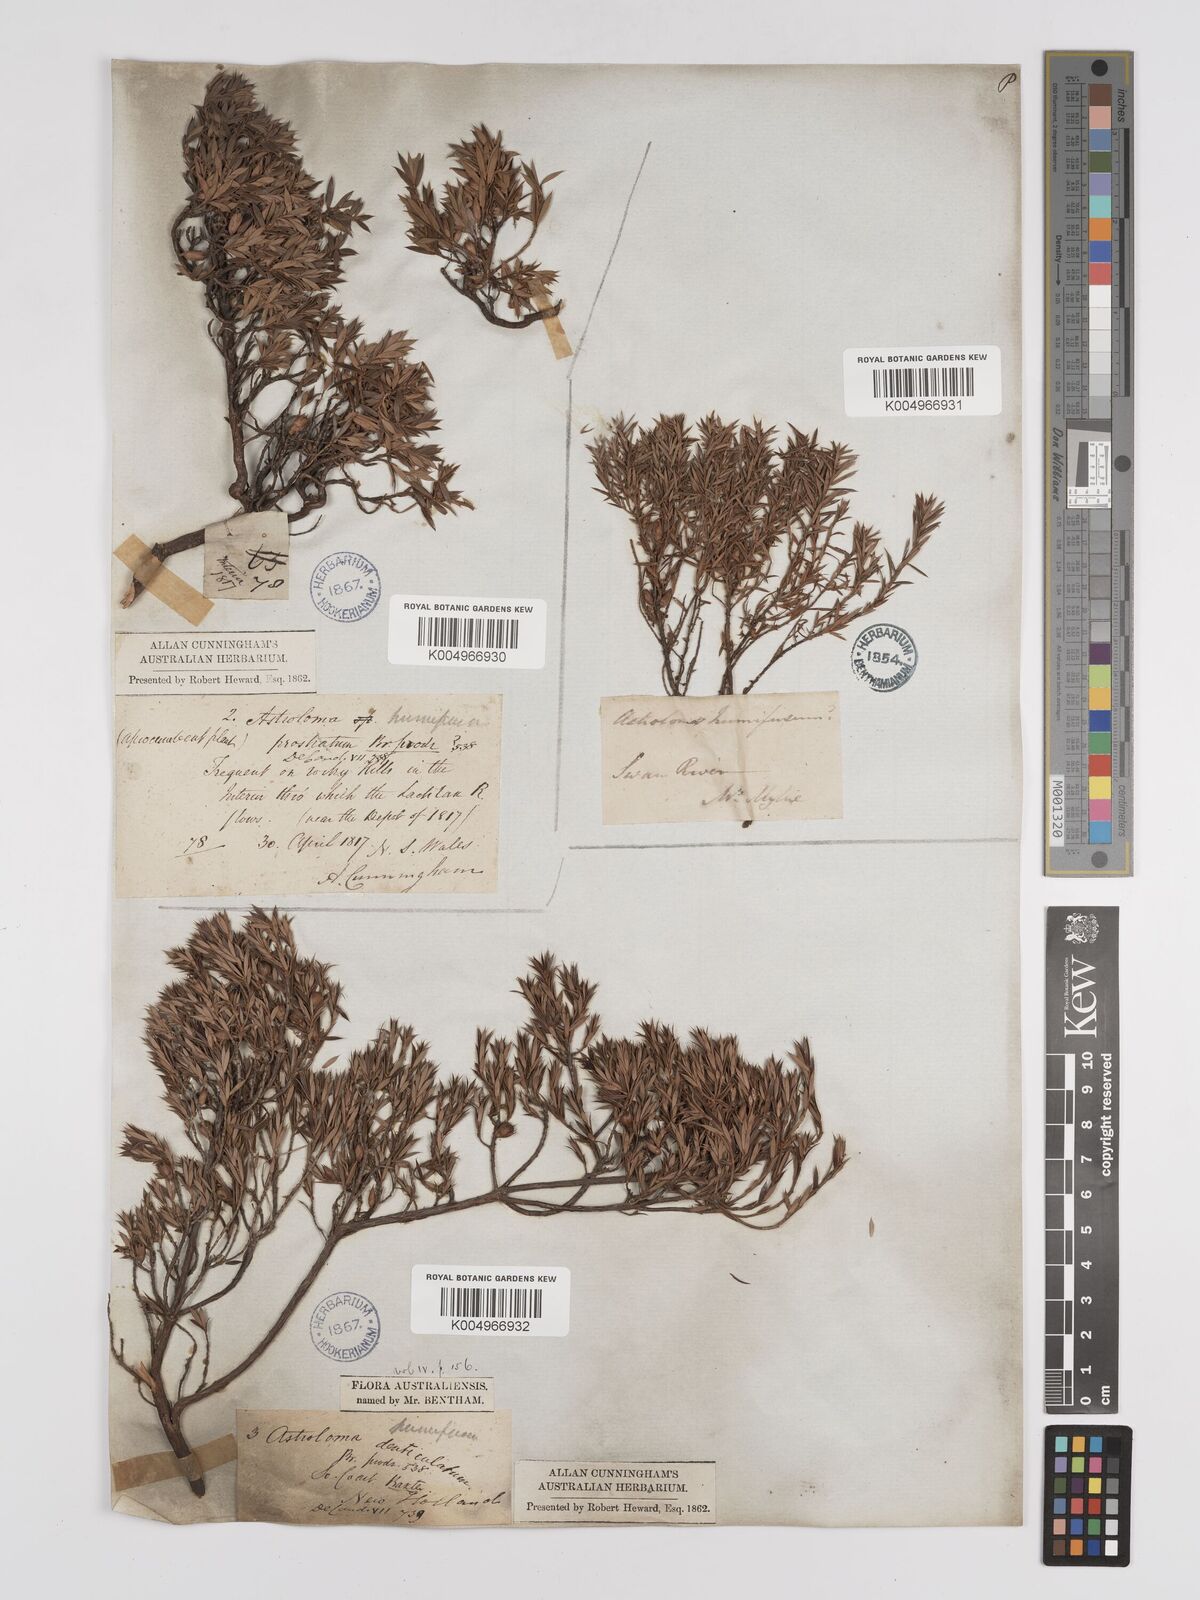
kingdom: Plantae
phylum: Tracheophyta
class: Magnoliopsida
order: Ericales
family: Ericaceae
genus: Styphelia
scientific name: Styphelia humifusa
